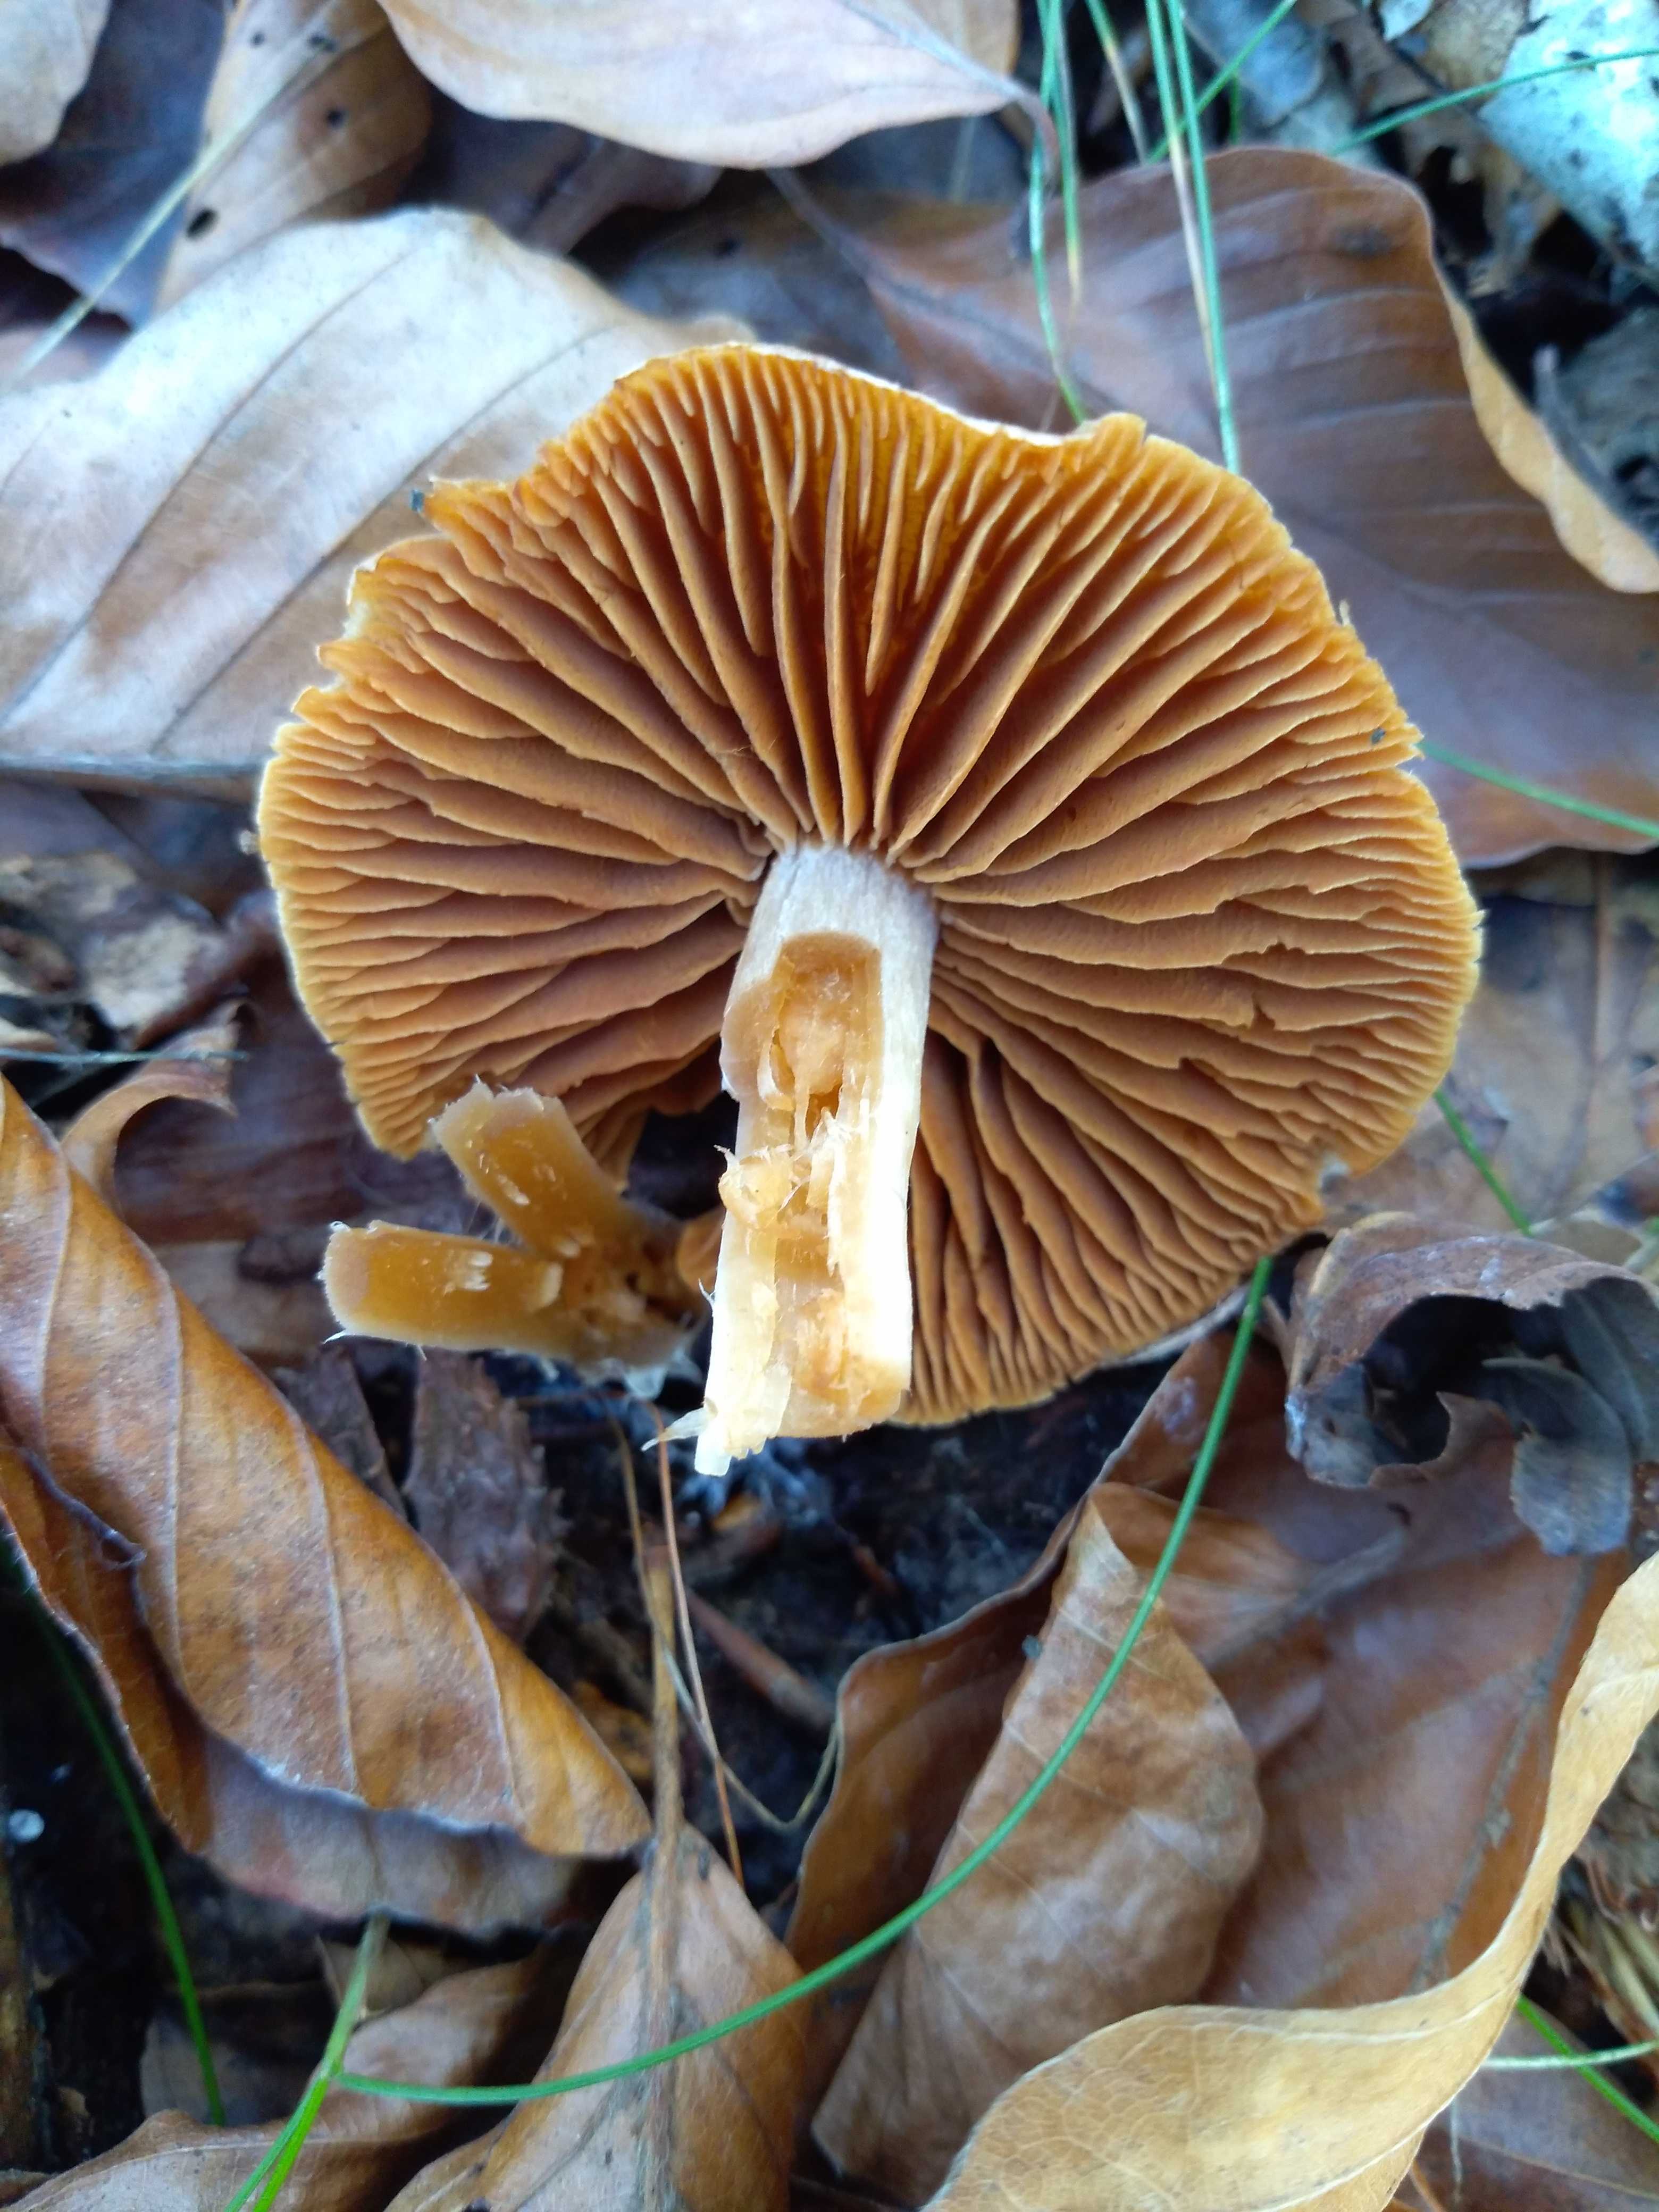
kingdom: Fungi
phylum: Basidiomycota
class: Agaricomycetes
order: Agaricales
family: Cortinariaceae
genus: Cortinarius
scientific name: Cortinarius
